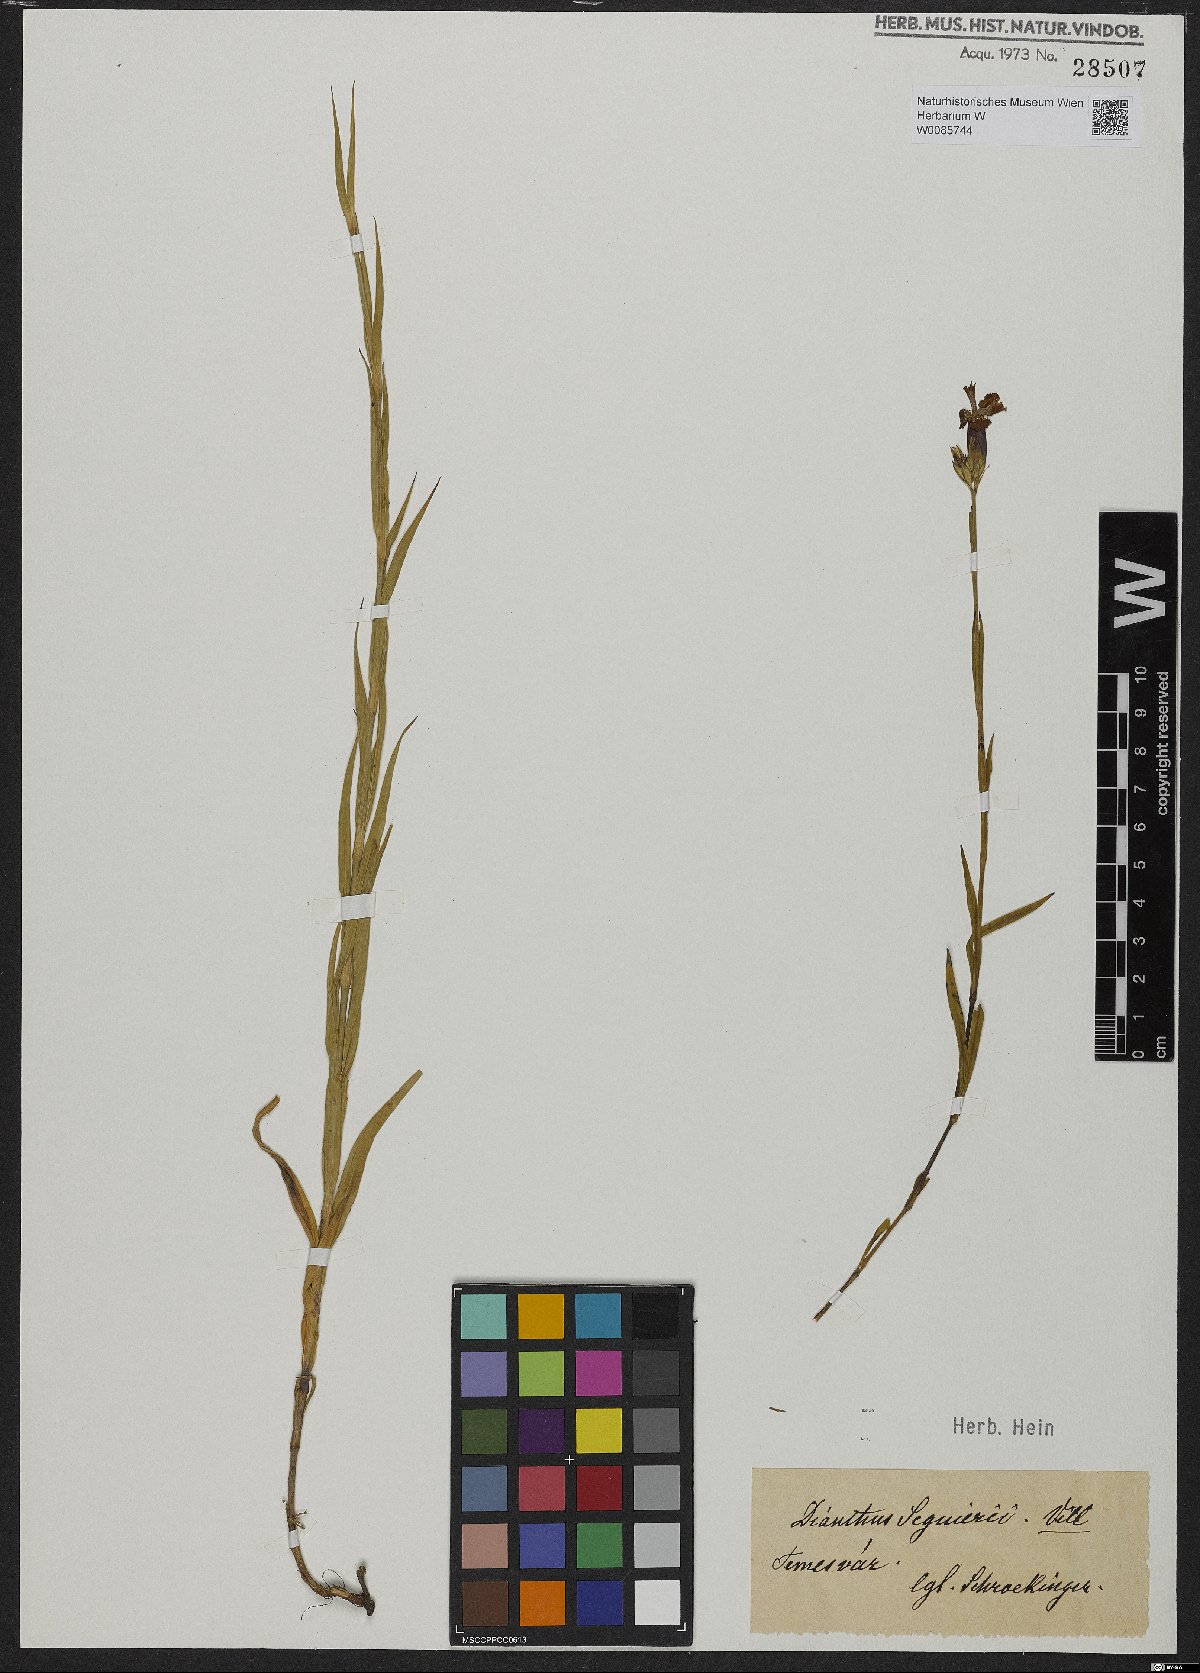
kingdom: Plantae
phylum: Tracheophyta
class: Magnoliopsida
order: Caryophyllales
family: Caryophyllaceae
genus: Dianthus
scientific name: Dianthus seguieri
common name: Ragged pink
